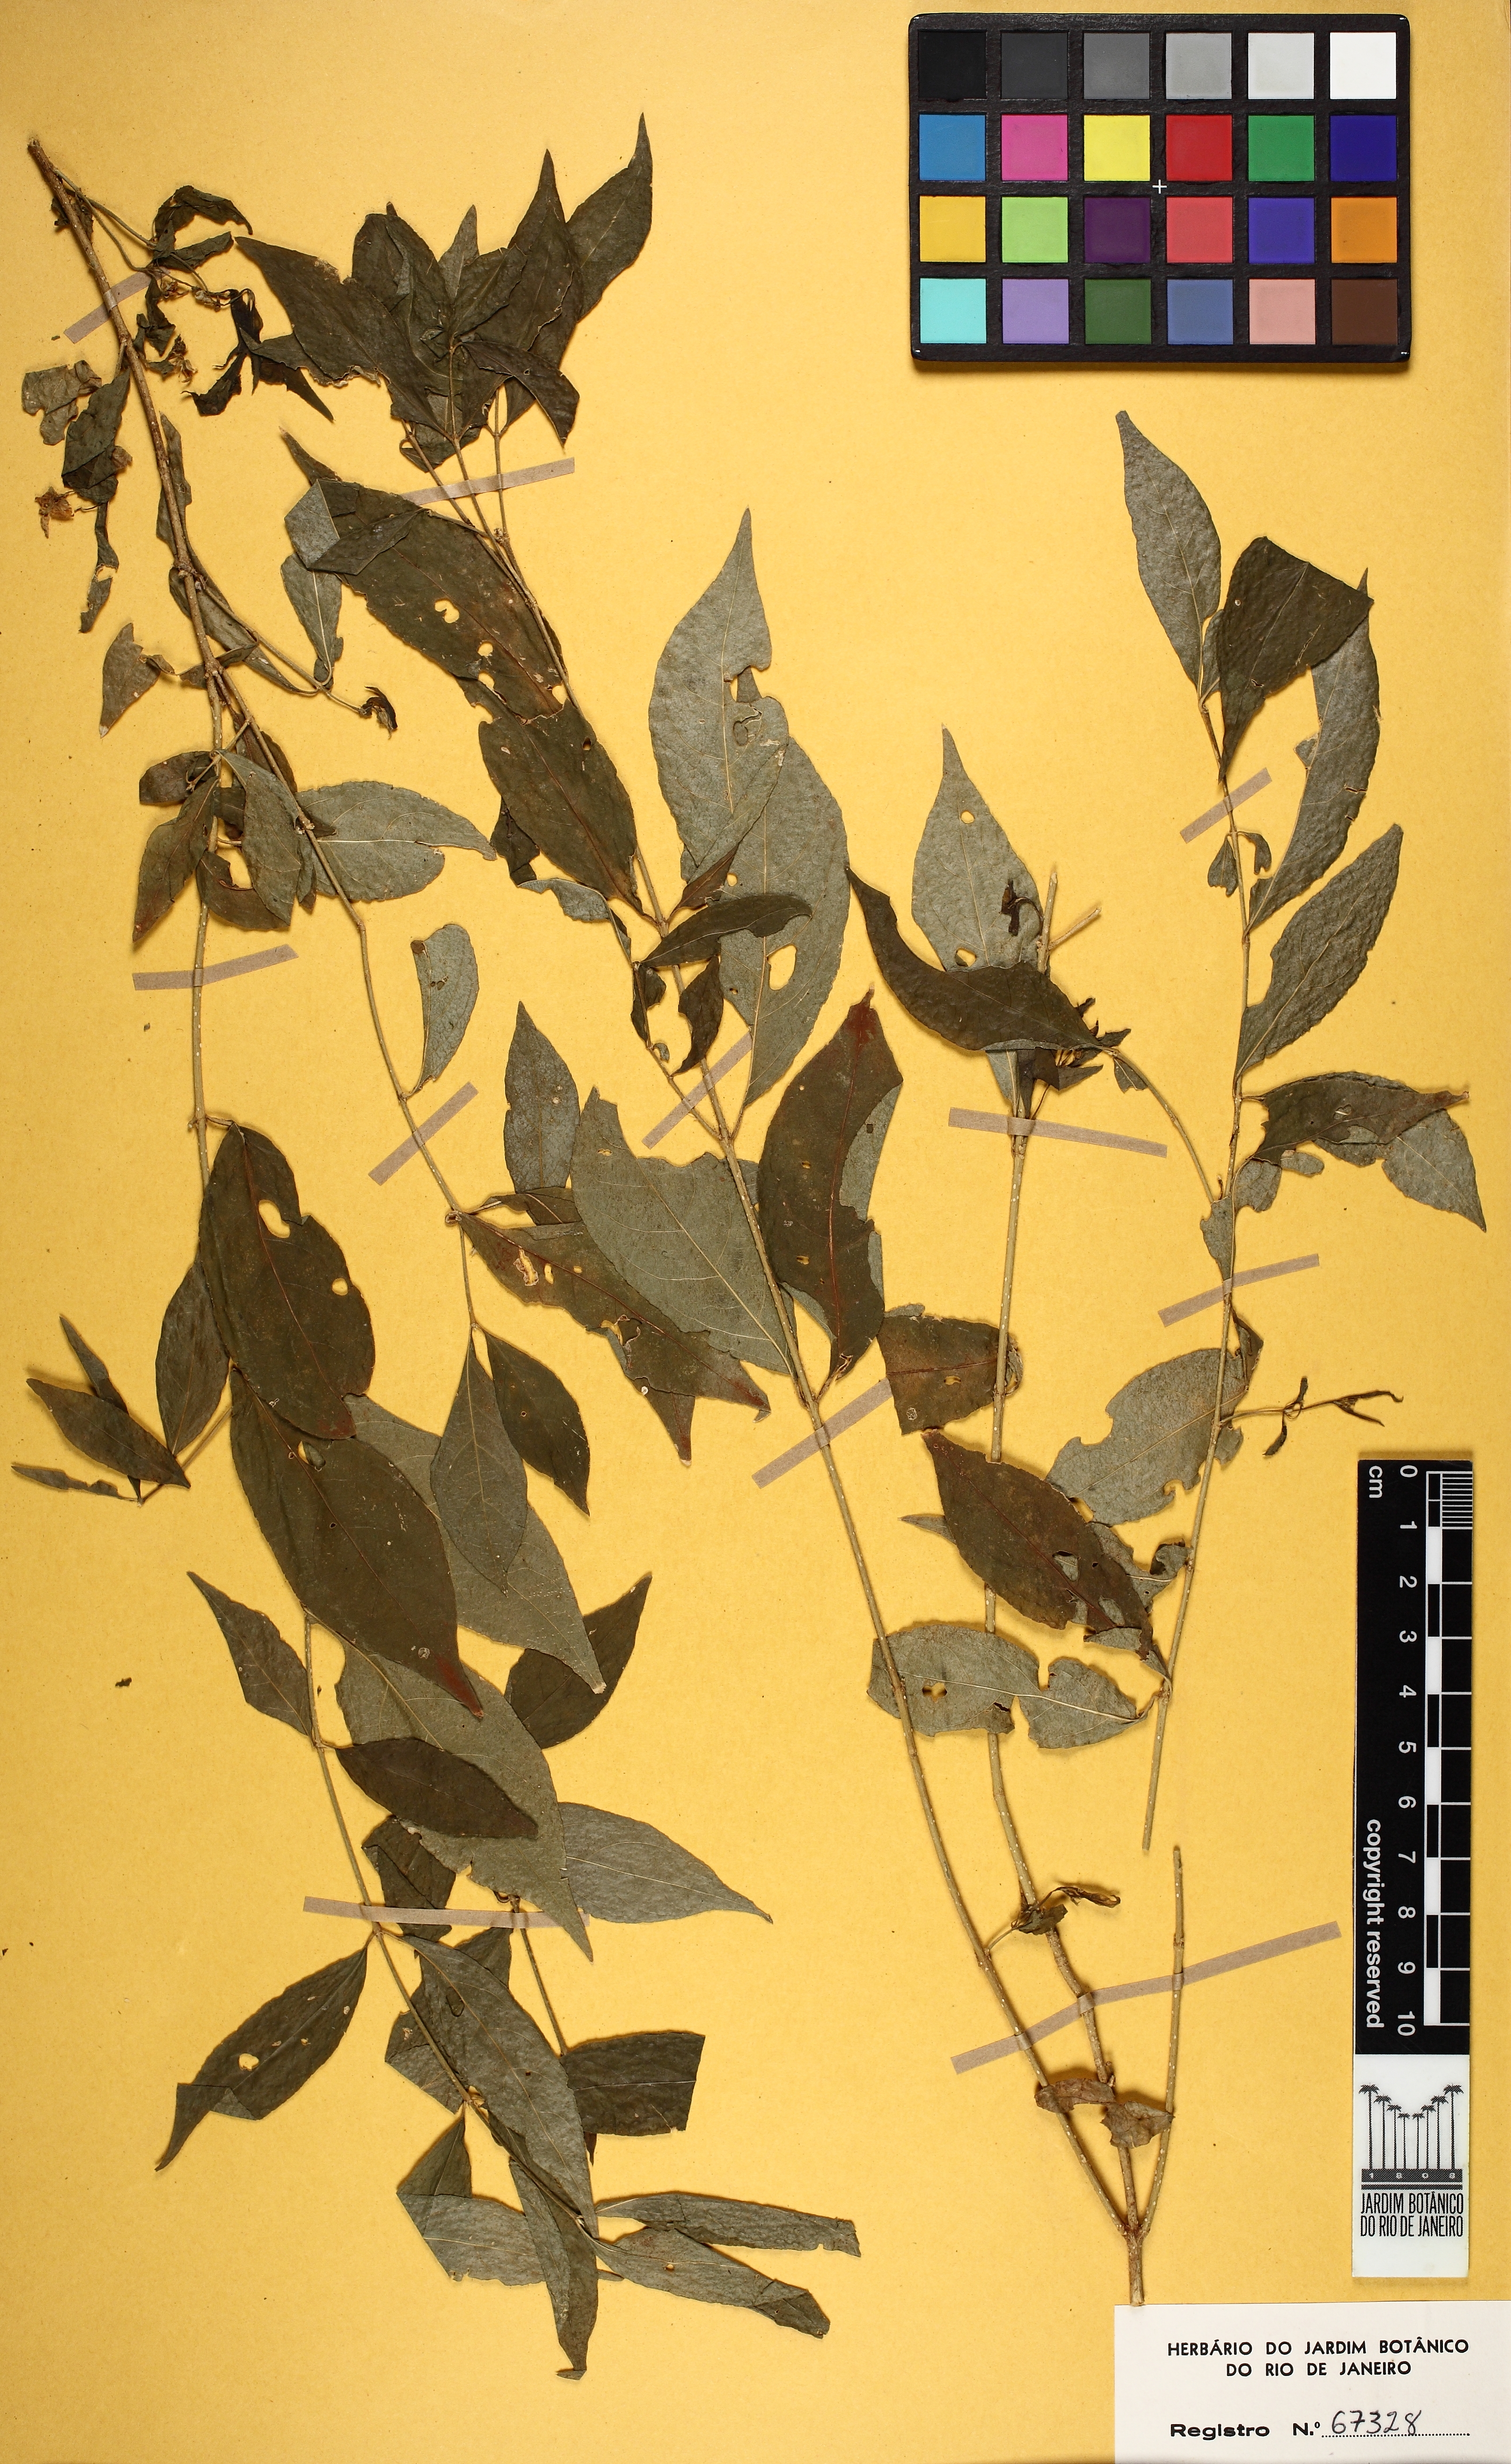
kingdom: Plantae
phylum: Tracheophyta
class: Magnoliopsida
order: Malpighiales
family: Violaceae
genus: Pombalia
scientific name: Pombalia bigibbosa
